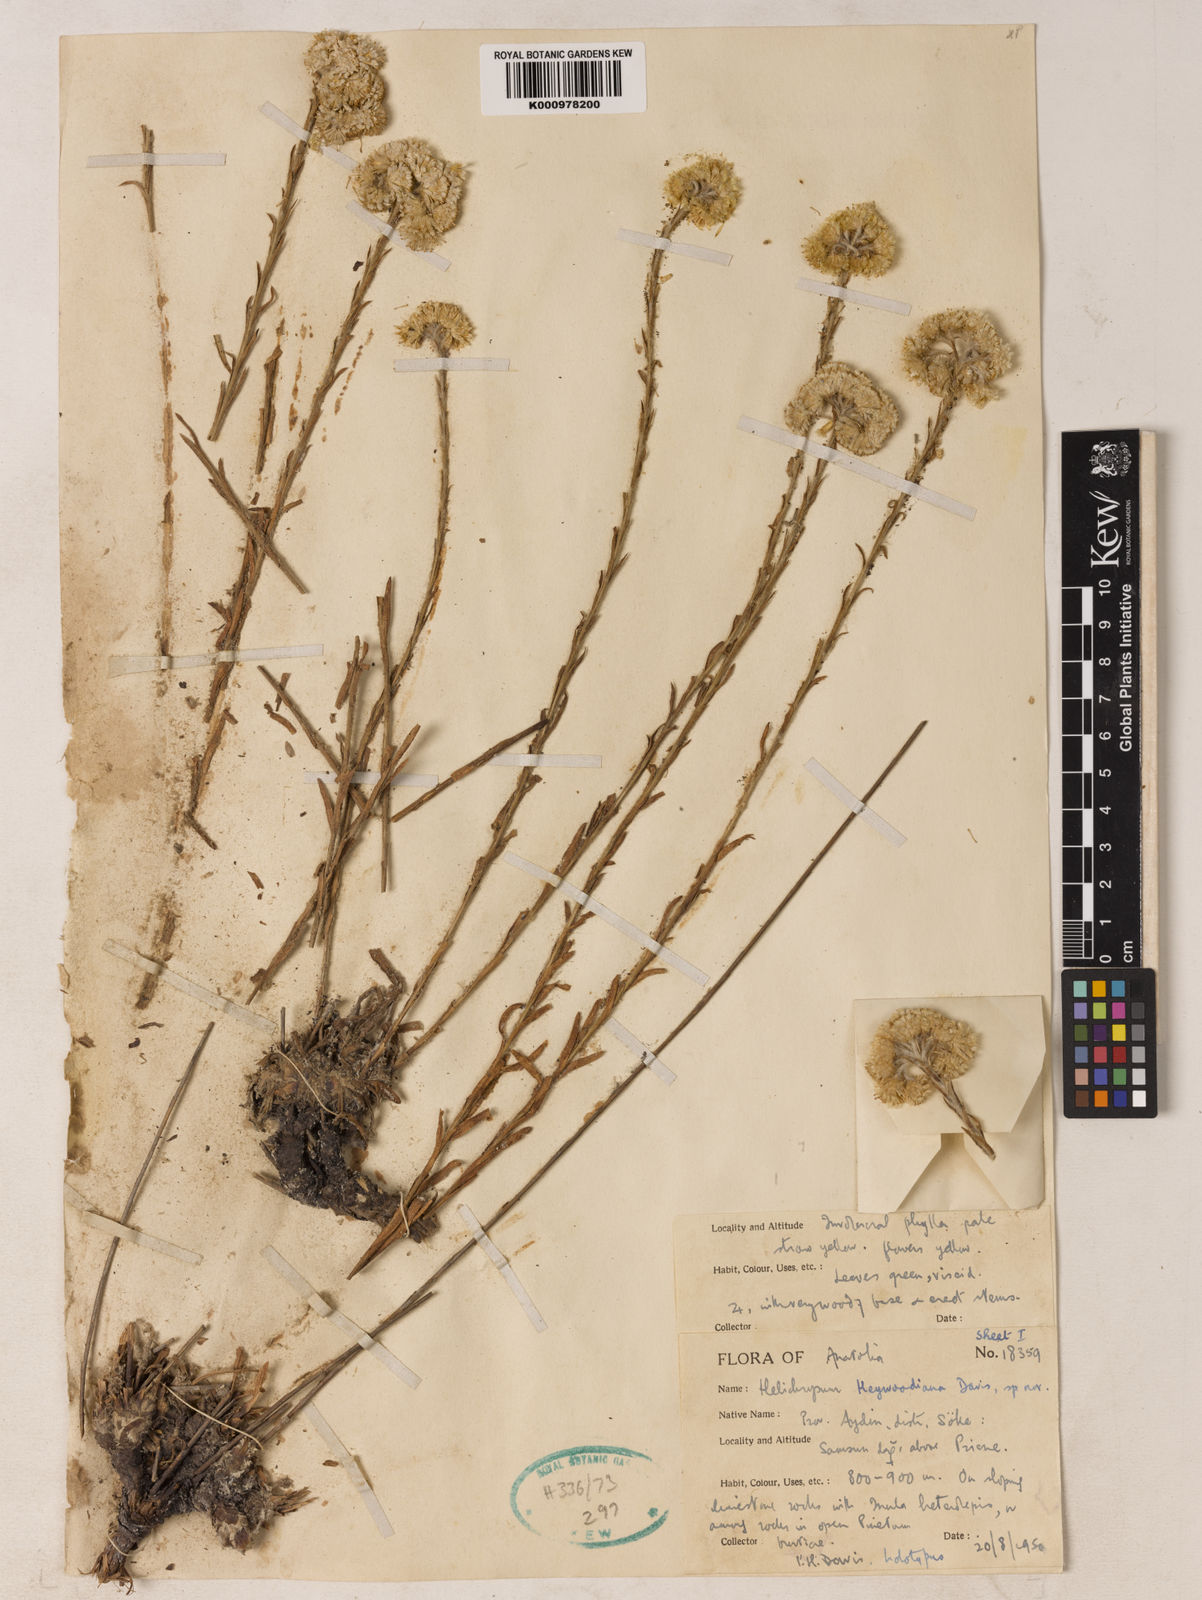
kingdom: Plantae
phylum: Tracheophyta
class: Magnoliopsida
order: Asterales
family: Asteraceae
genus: Helichrysum
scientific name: Helichrysum heywoodianum
